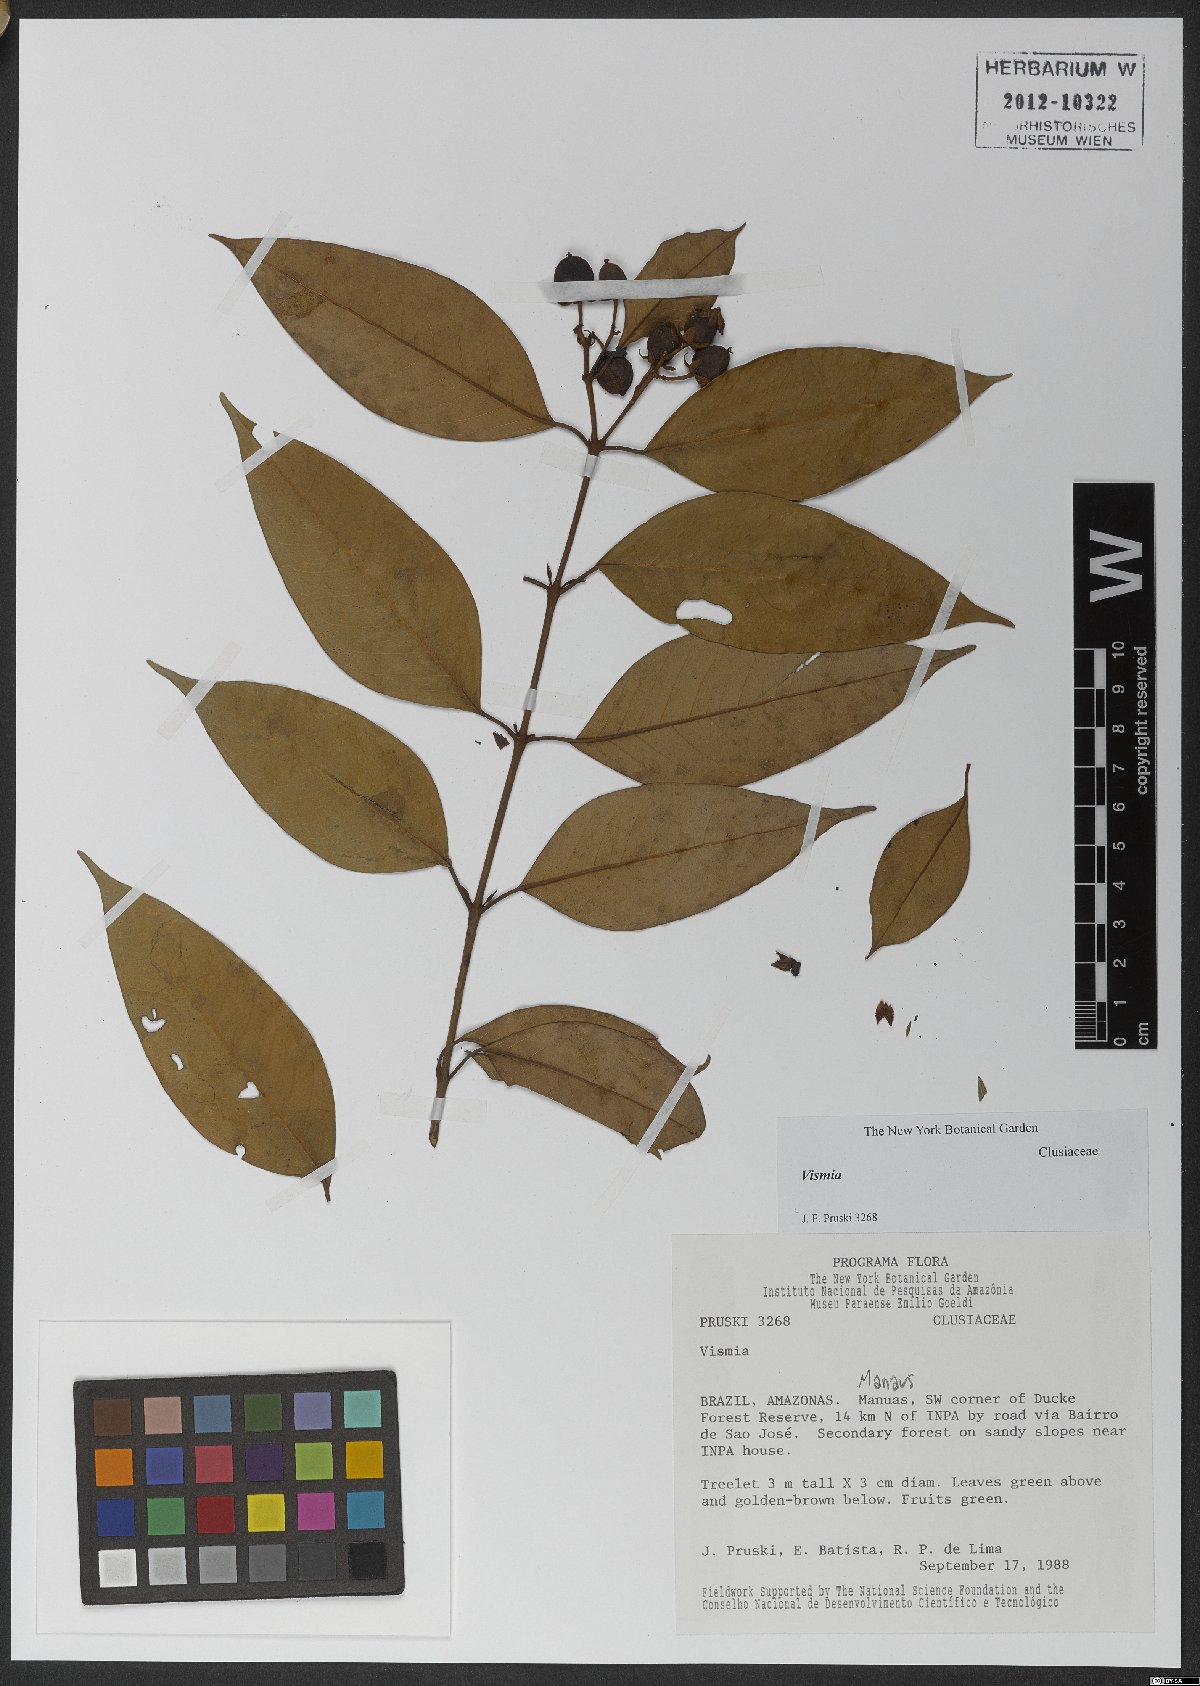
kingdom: Plantae
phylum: Tracheophyta
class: Magnoliopsida
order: Malpighiales
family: Hypericaceae
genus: Vismia
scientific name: Vismia guianensis
